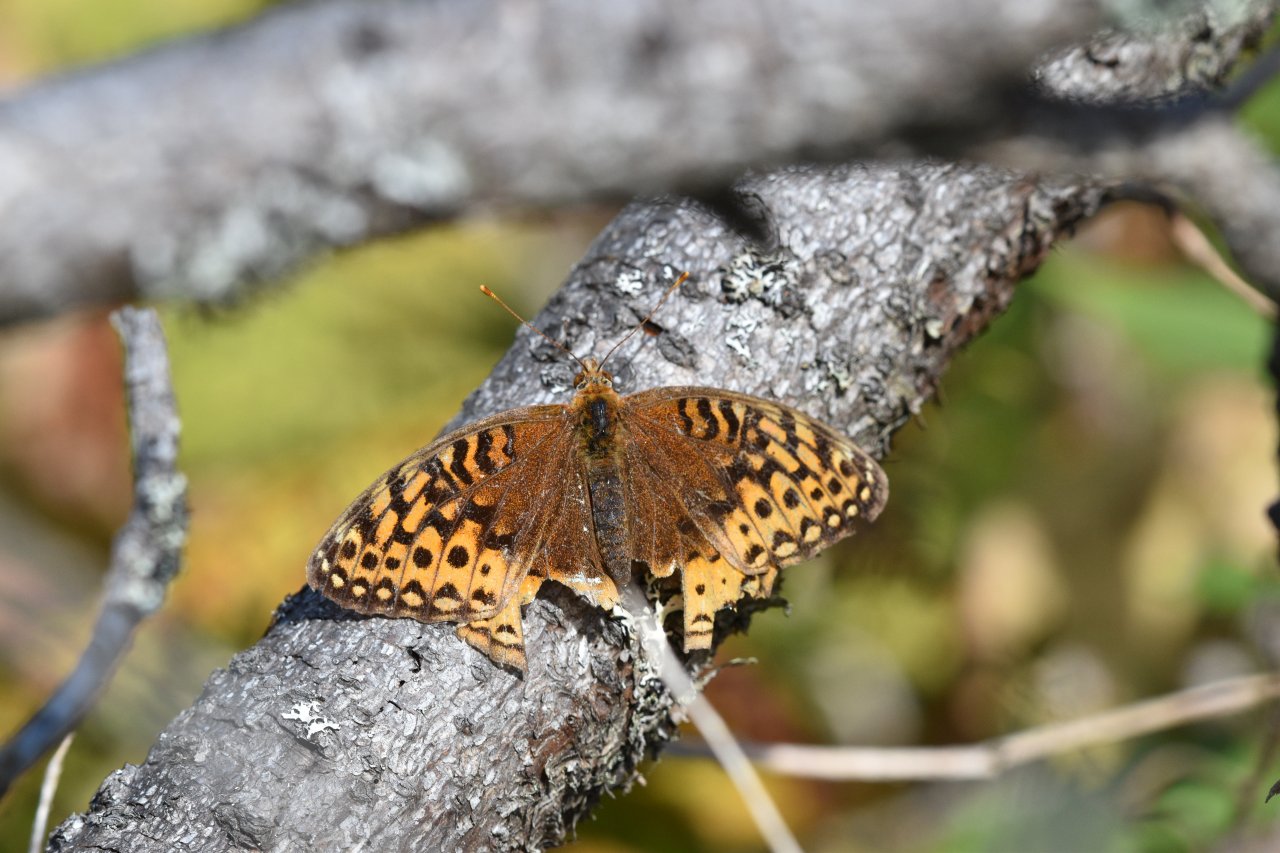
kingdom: Animalia
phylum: Arthropoda
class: Insecta
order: Lepidoptera
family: Nymphalidae
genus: Speyeria
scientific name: Speyeria cybele
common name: Great Spangled Fritillary
